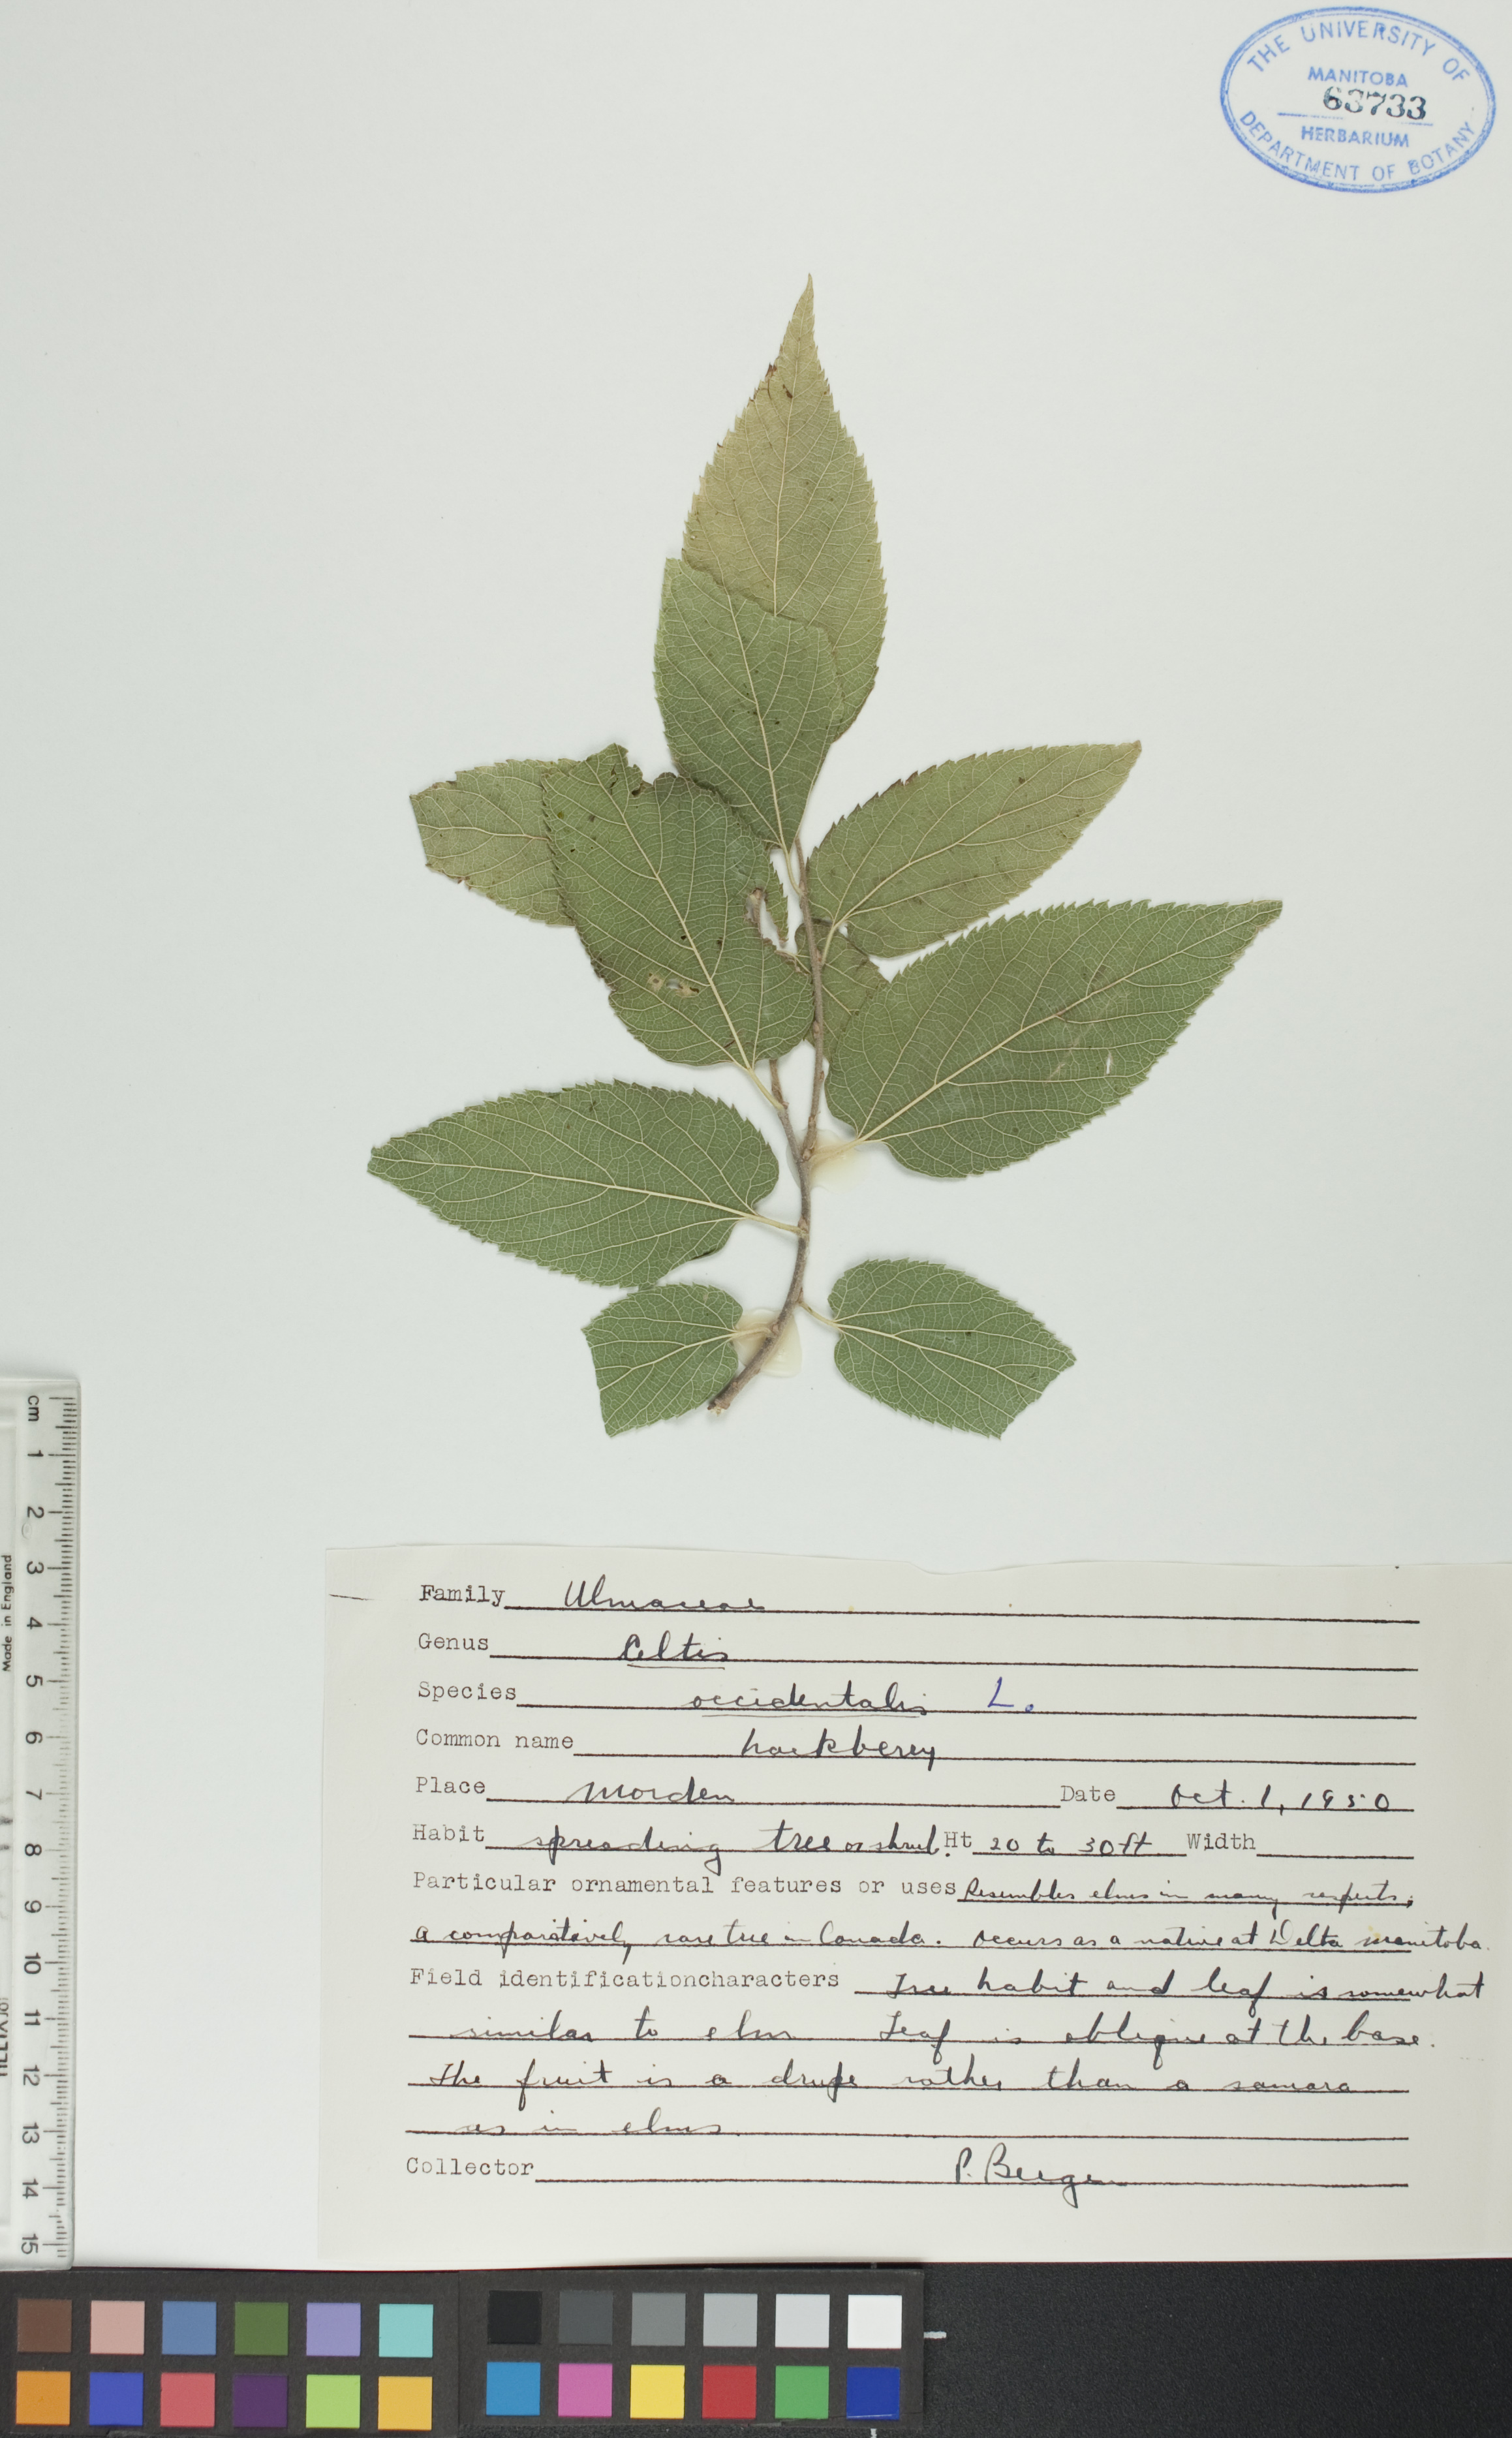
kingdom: Plantae
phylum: Tracheophyta
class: Magnoliopsida
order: Rosales
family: Cannabaceae
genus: Celtis
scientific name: Celtis occidentalis
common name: Common hackberry
